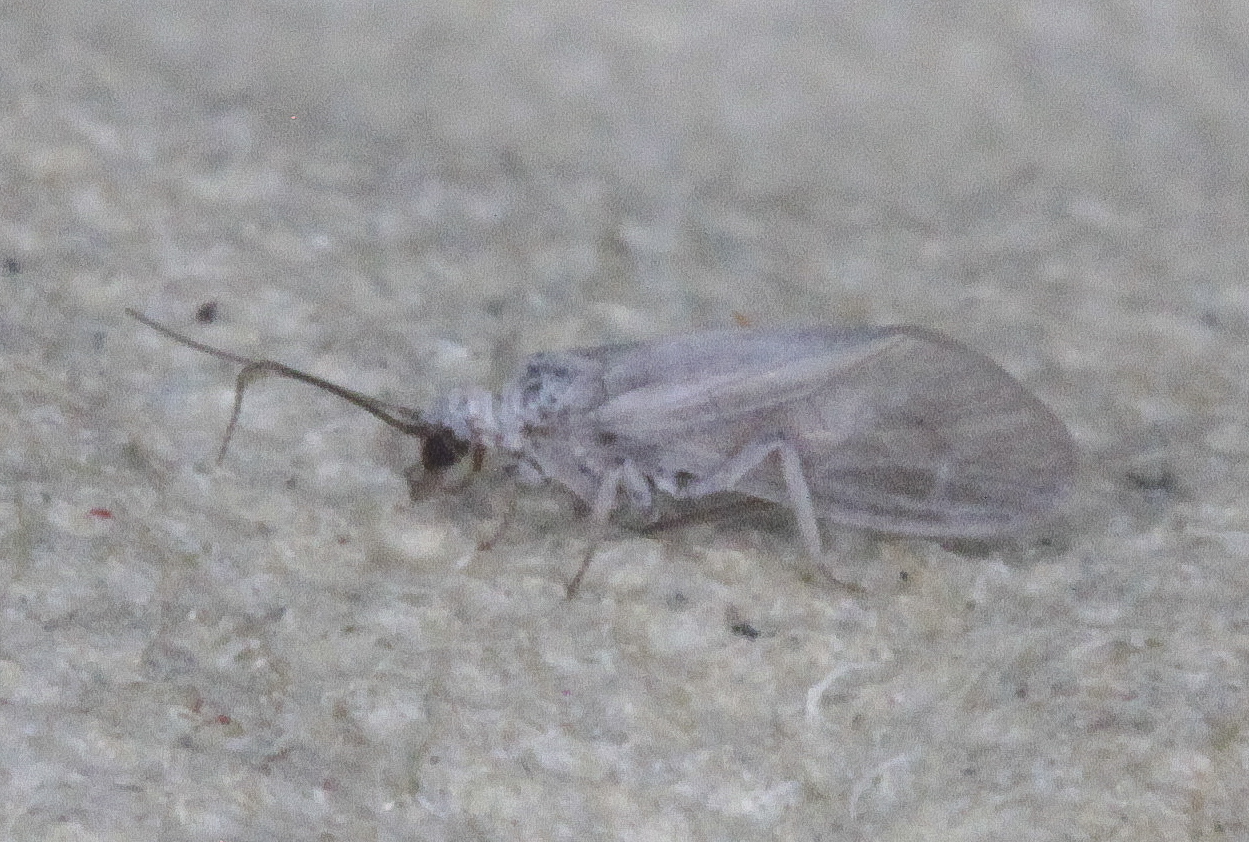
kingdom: Animalia
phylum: Arthropoda
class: Insecta
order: Neuroptera
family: Coniopterygidae
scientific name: Coniopterygidae
